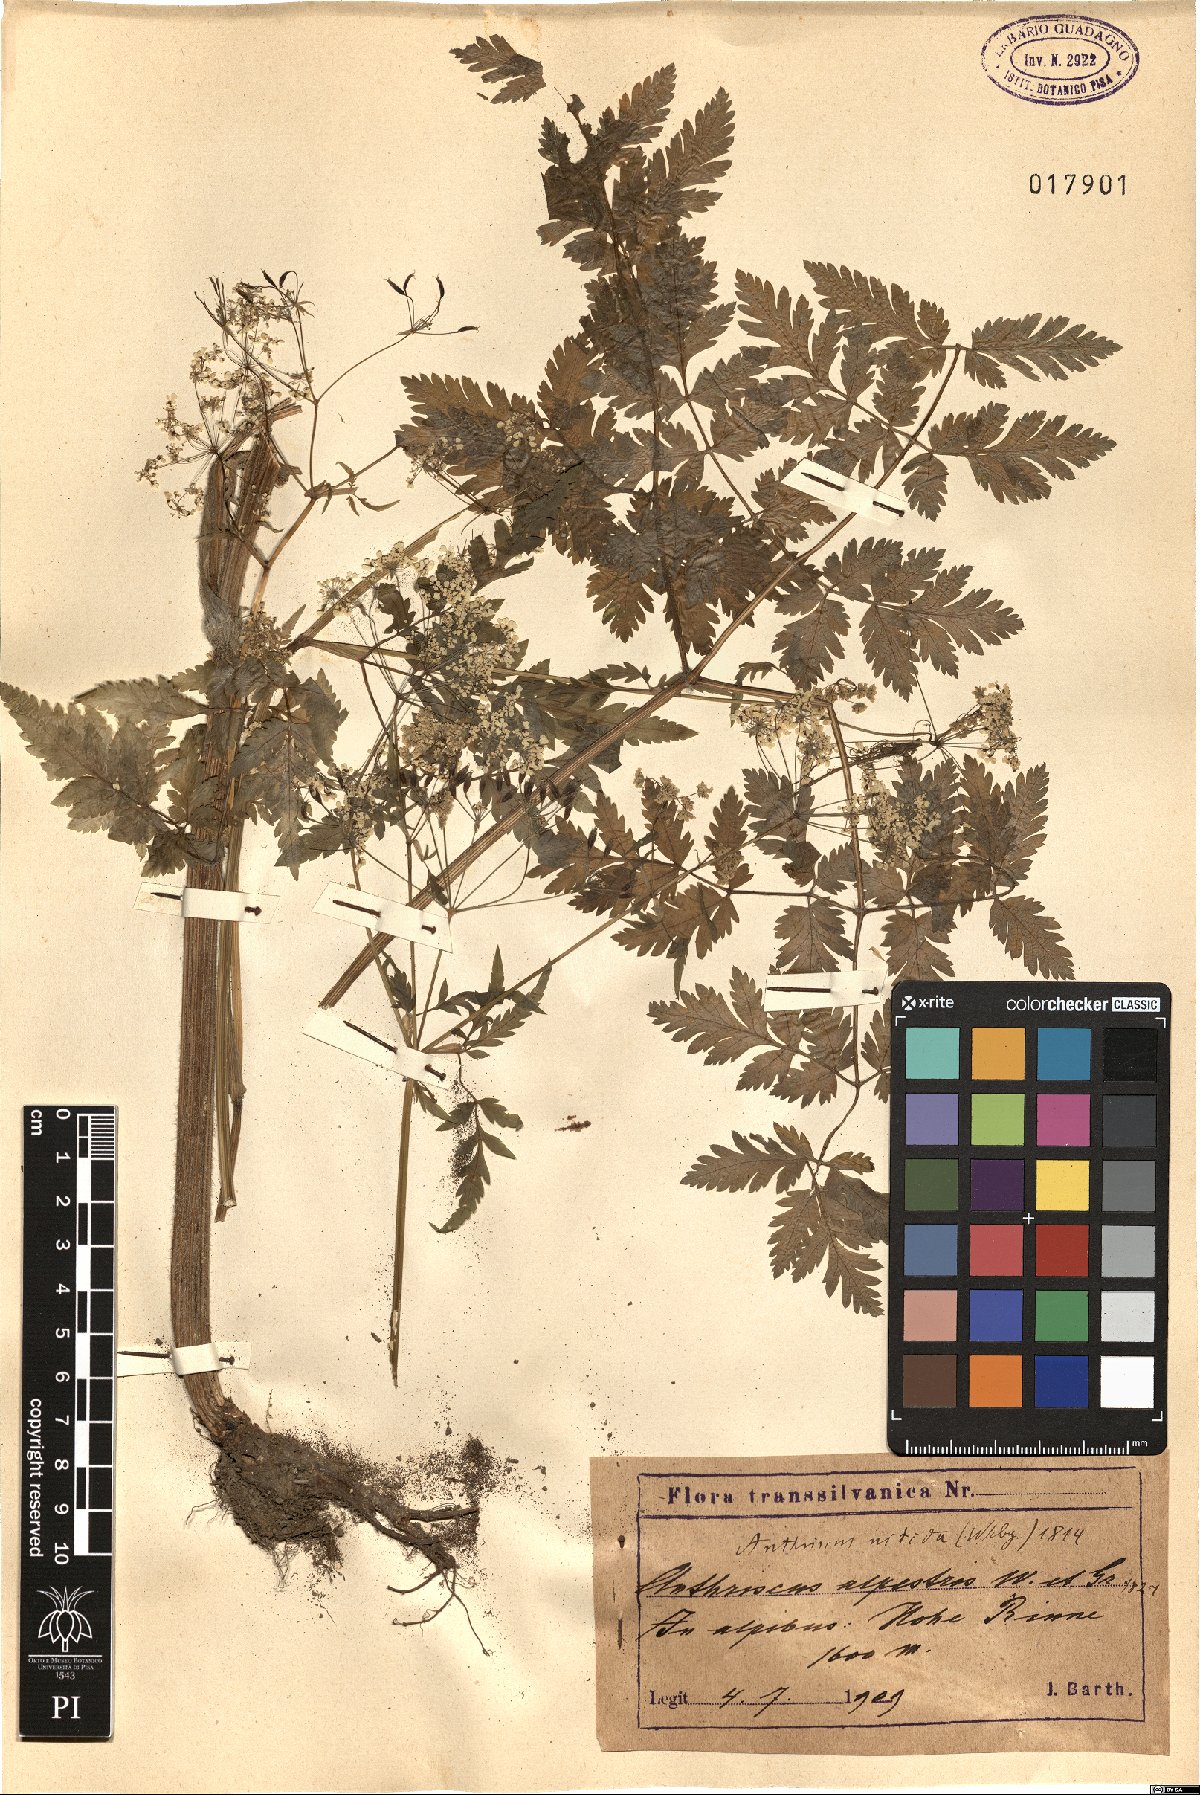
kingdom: Plantae
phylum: Tracheophyta
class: Magnoliopsida
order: Apiales
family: Apiaceae
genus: Anthriscus
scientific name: Anthriscus nitida
